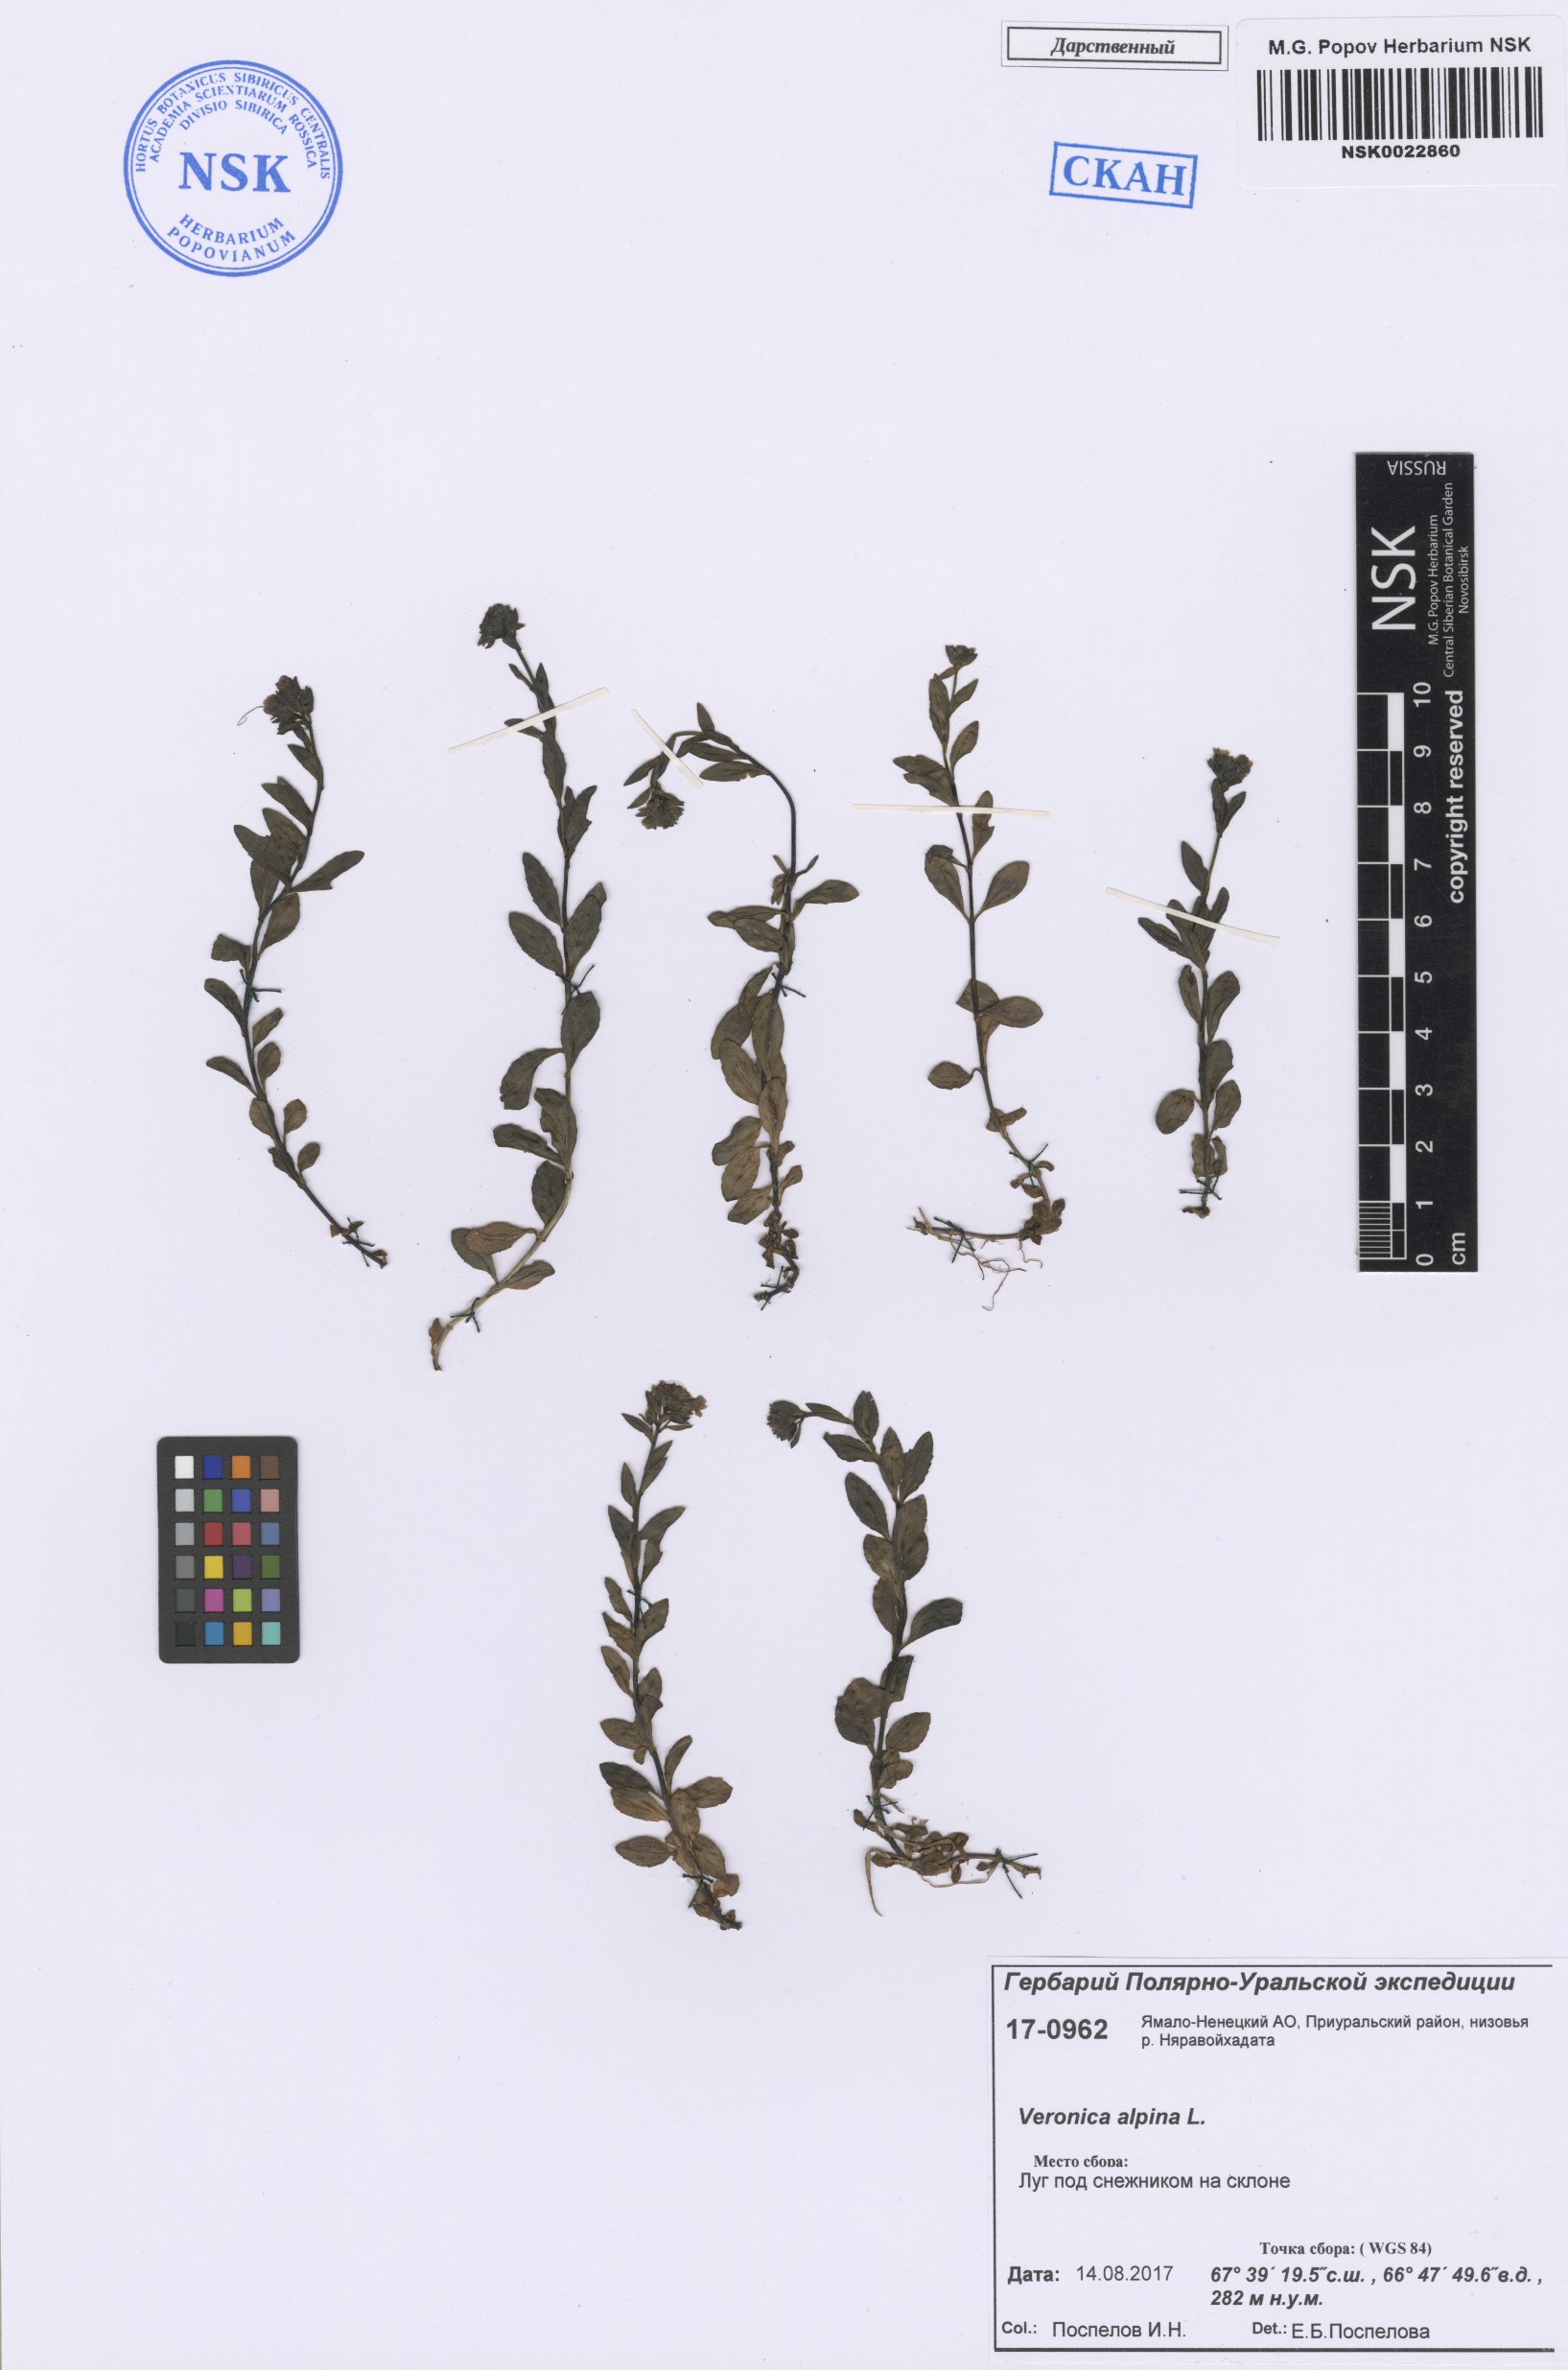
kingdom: Plantae
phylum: Tracheophyta
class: Magnoliopsida
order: Lamiales
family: Plantaginaceae
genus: Veronica
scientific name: Veronica alpina
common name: Alpine speedwell
